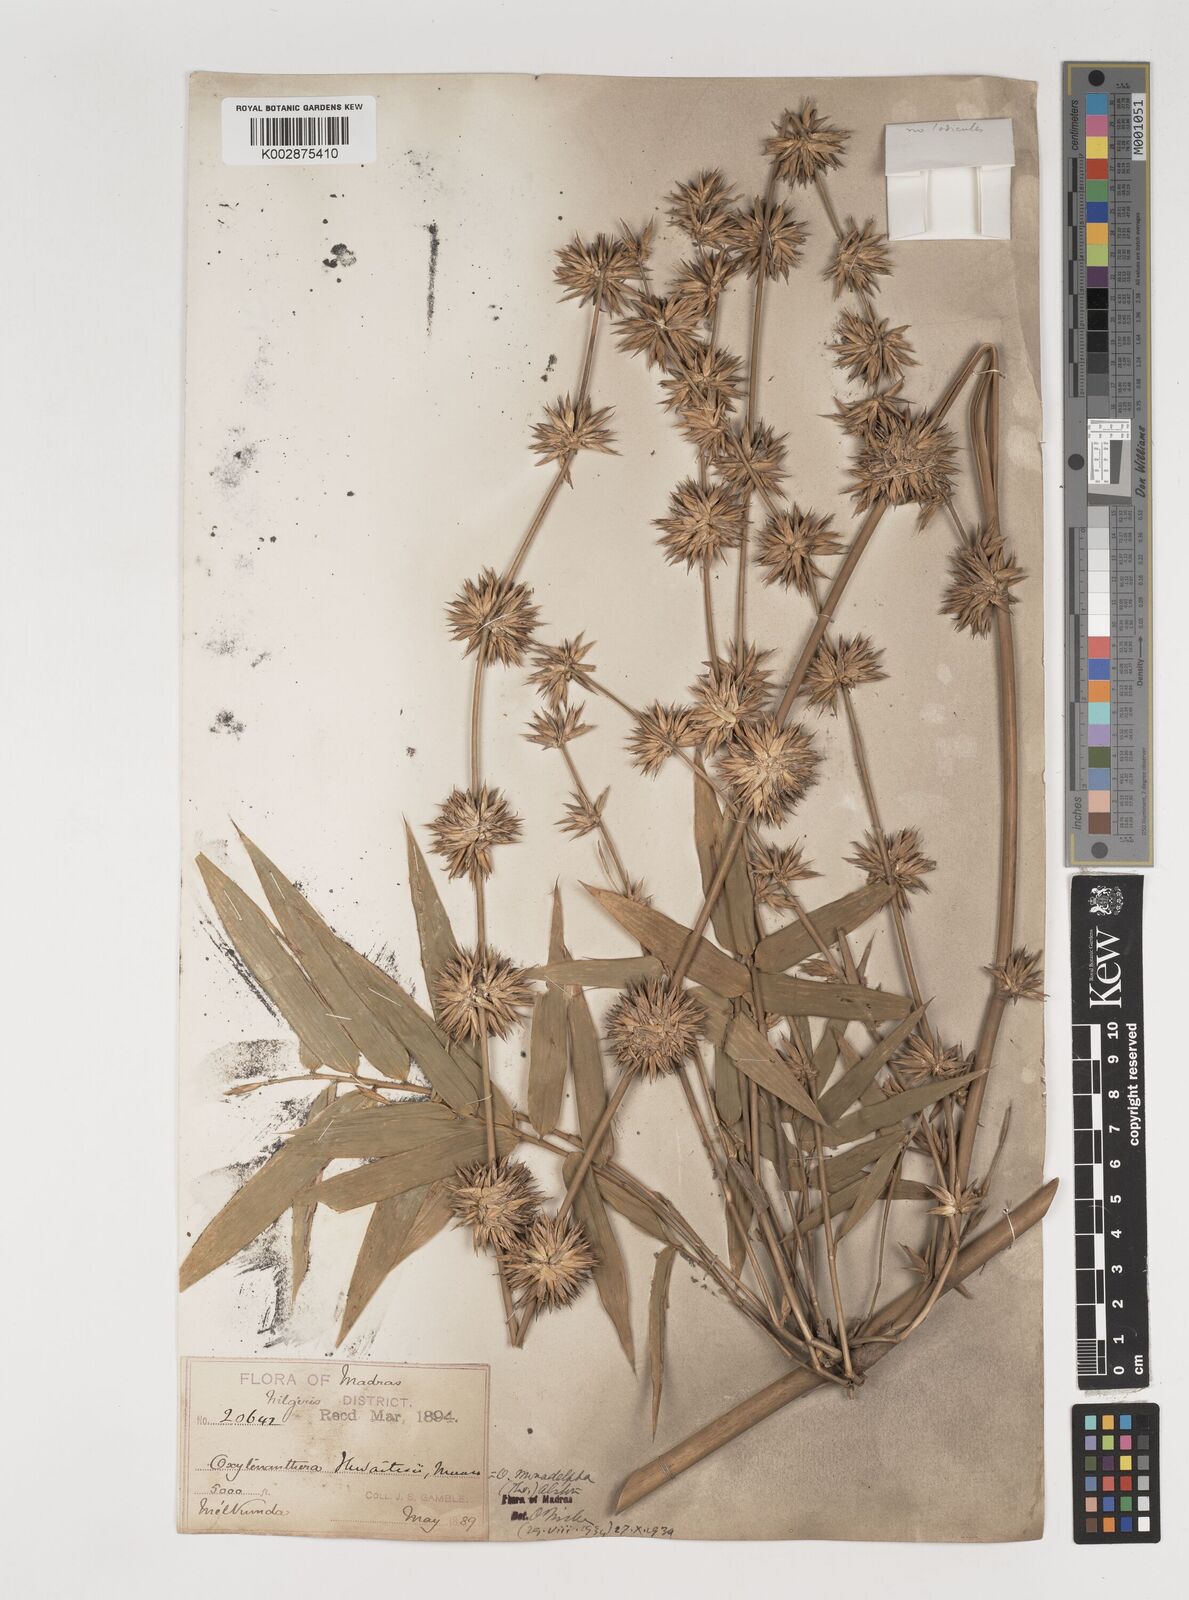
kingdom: Plantae
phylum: Tracheophyta
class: Liliopsida
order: Poales
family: Poaceae
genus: Pseudoxytenanthera
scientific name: Pseudoxytenanthera monadelpha
